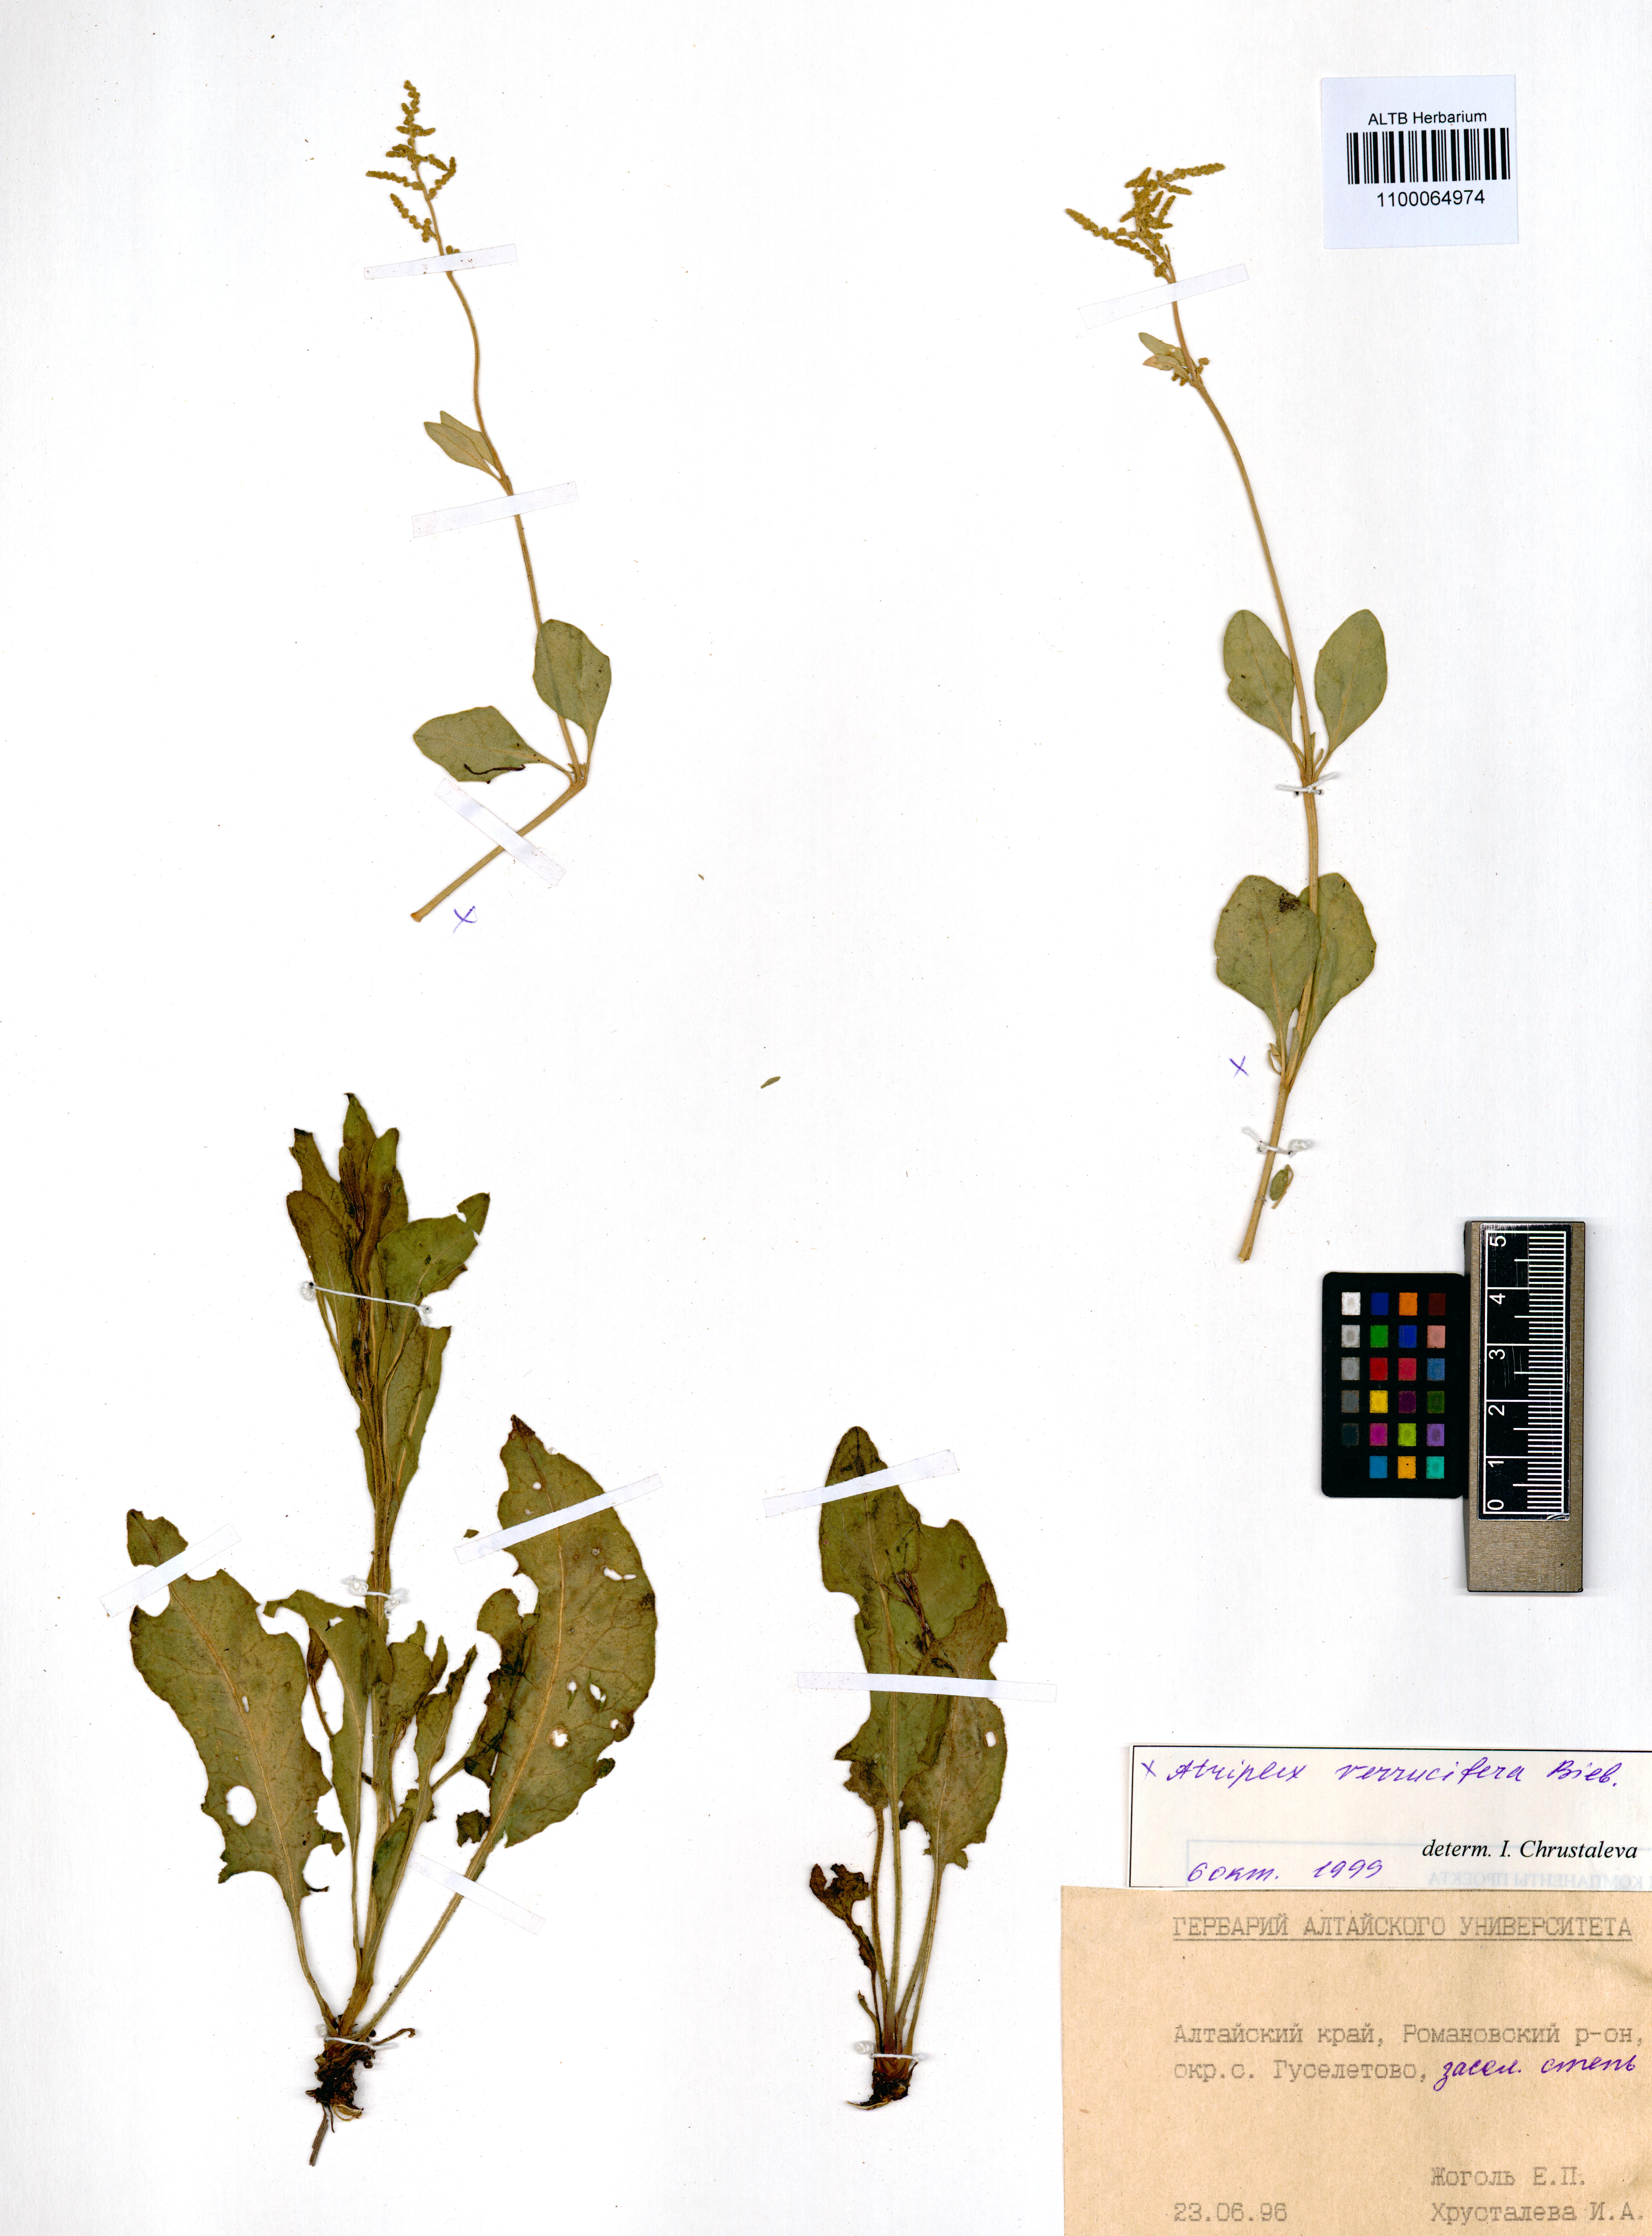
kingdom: Plantae
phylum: Tracheophyta
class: Magnoliopsida
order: Caryophyllales
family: Amaranthaceae
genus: Halimione
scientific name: Halimione verrucifera
